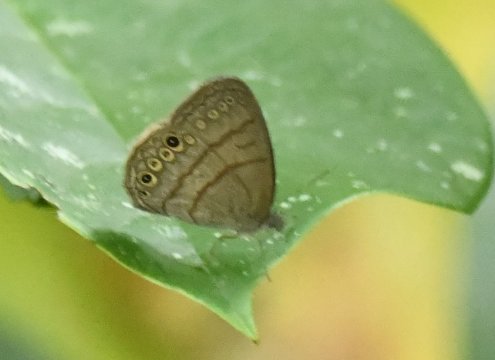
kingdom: Animalia
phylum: Arthropoda
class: Insecta
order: Lepidoptera
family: Nymphalidae
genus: Hermeuptychia
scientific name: Hermeuptychia hermes
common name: Hermes Satyr
